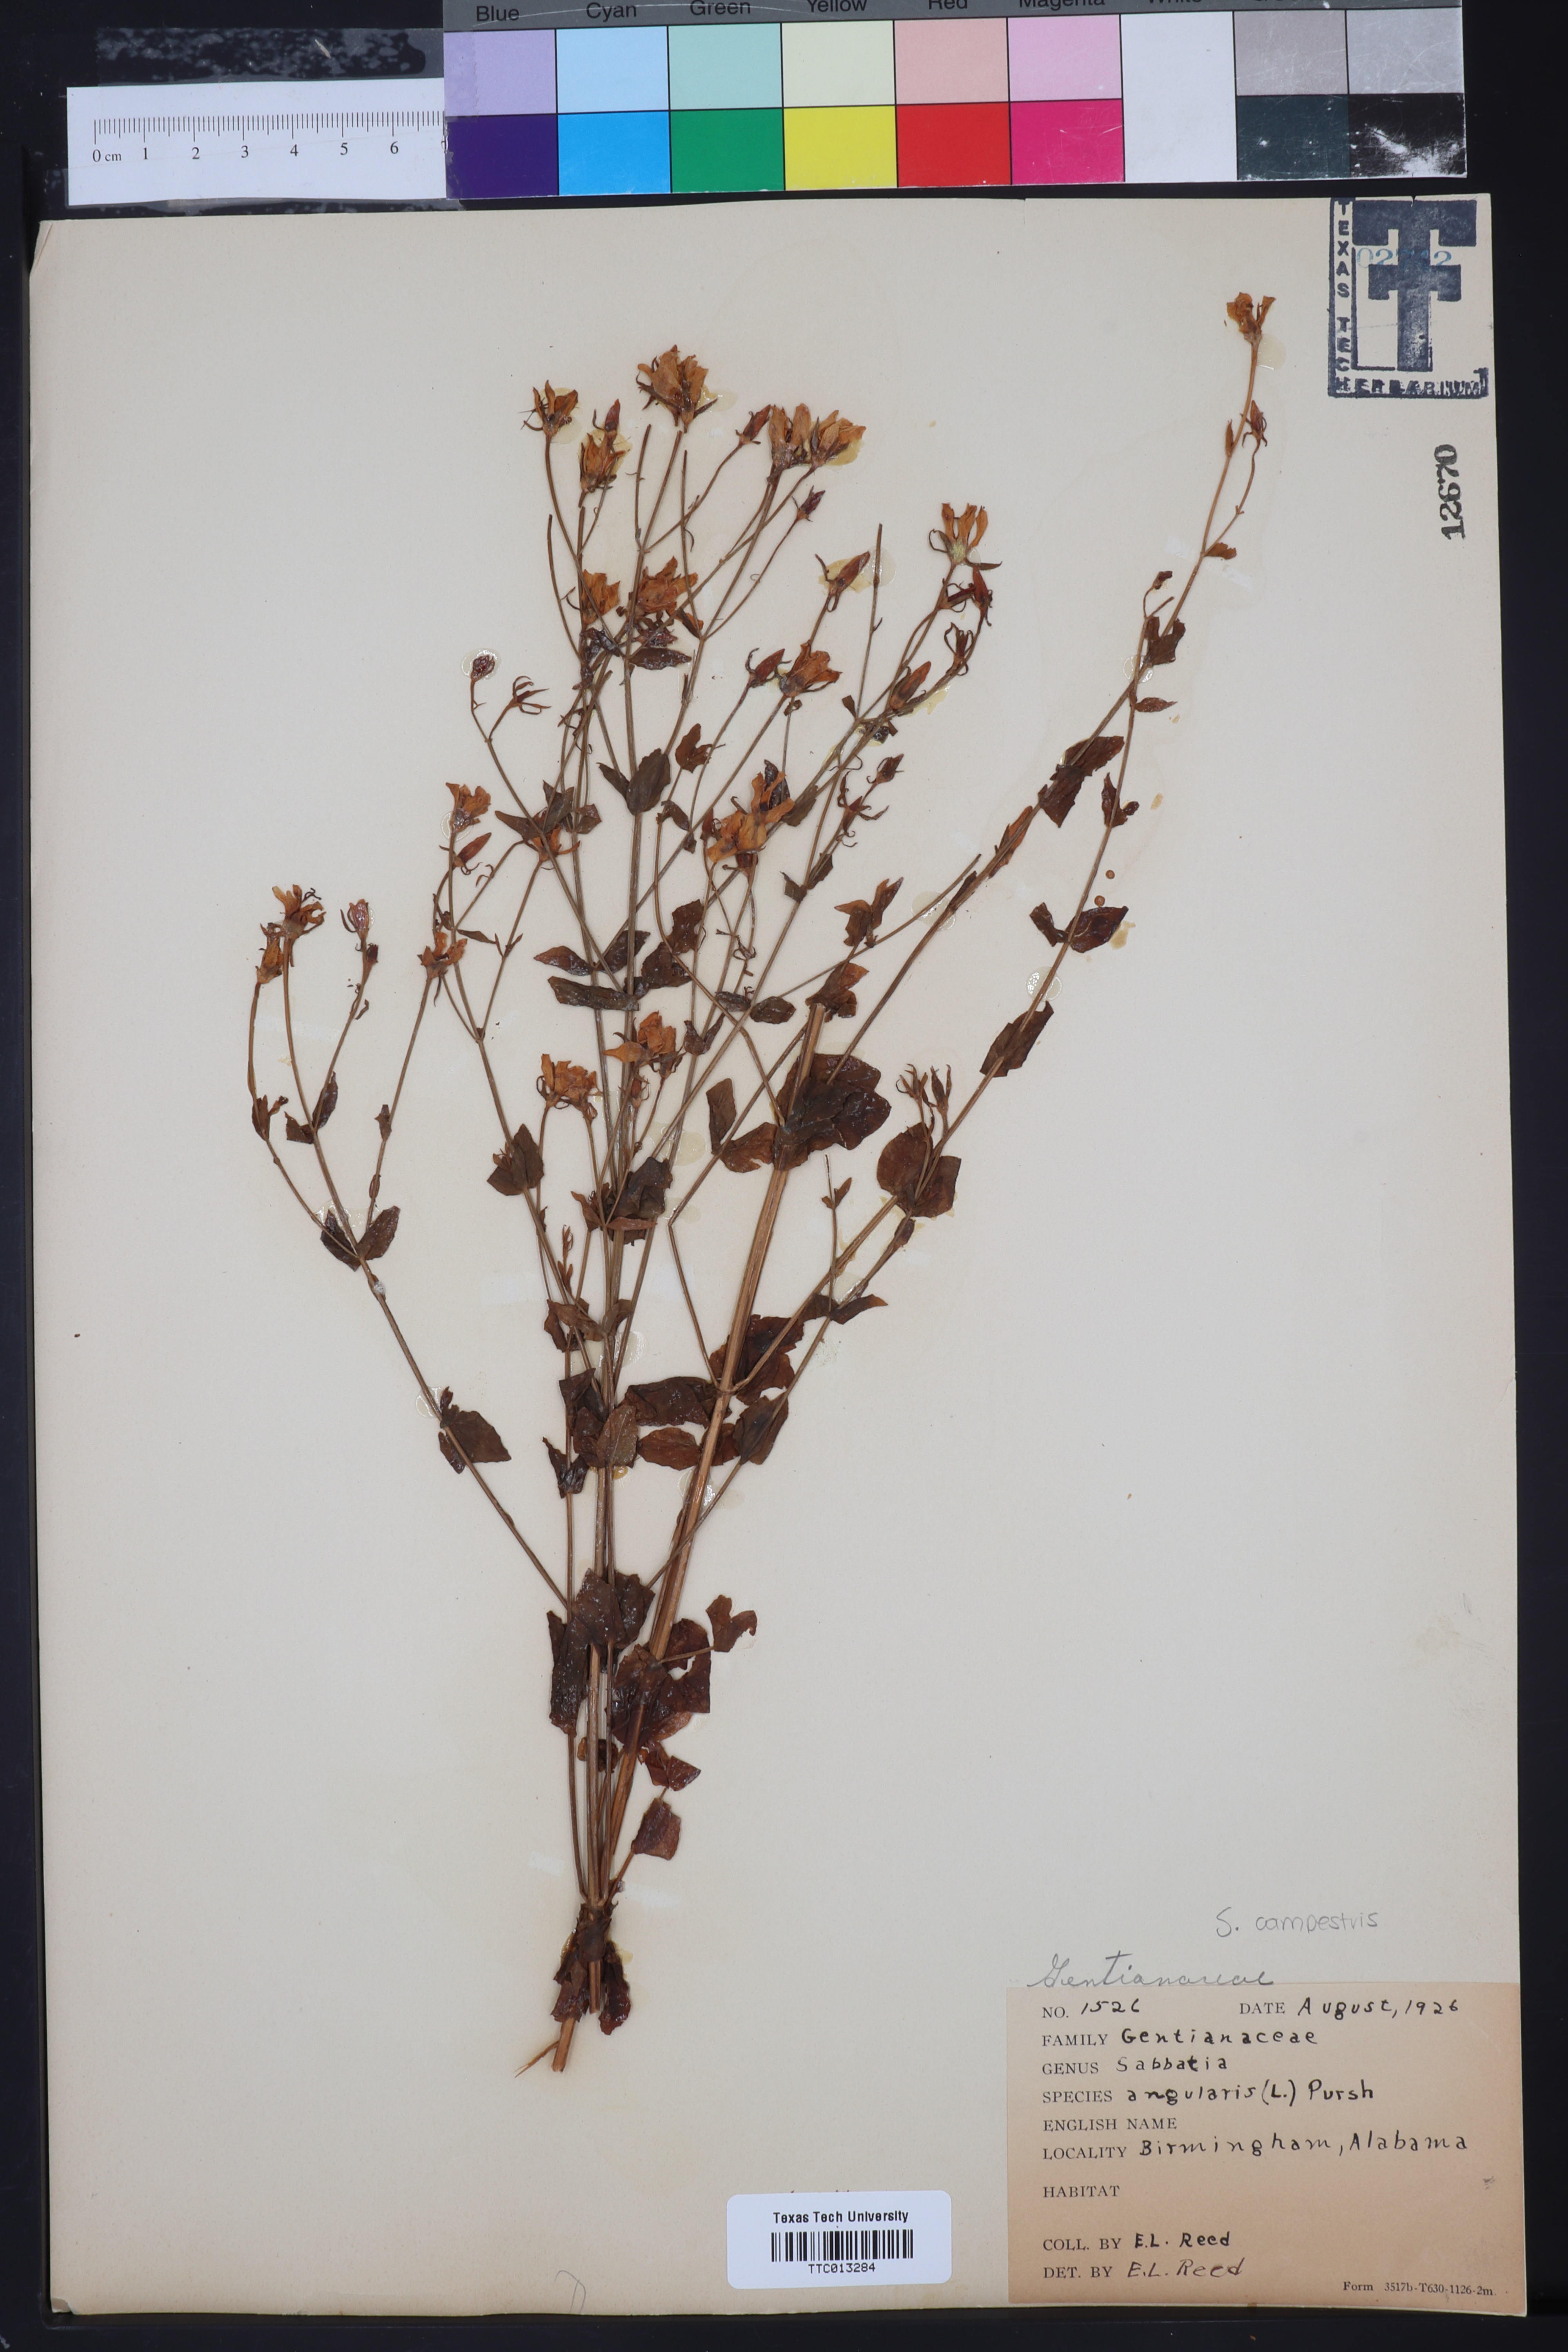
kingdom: Plantae
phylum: Tracheophyta
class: Magnoliopsida
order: Gentianales
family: Gentianaceae
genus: Sabatia
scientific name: Sabatia angularis
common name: Rose-pink
